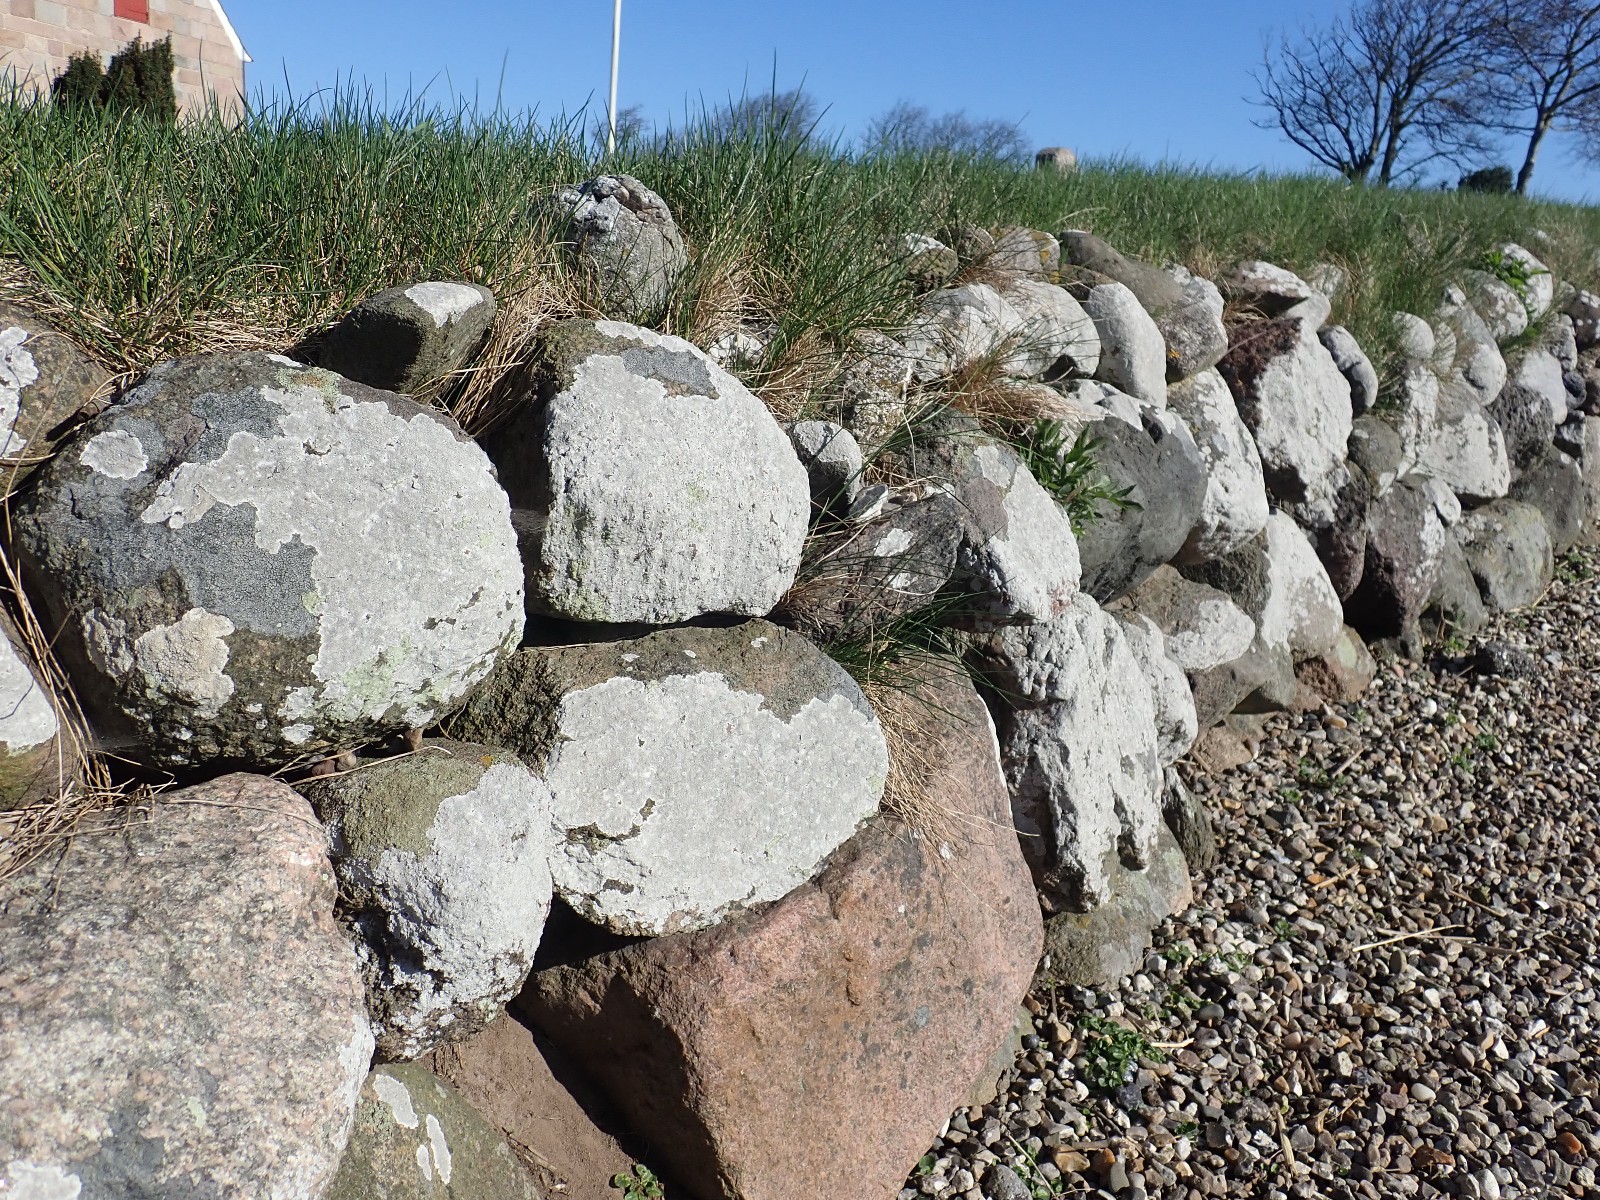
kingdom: Fungi
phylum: Ascomycota
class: Lecanoromycetes
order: Lecanorales
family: Lecanoraceae
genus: Glaucomaria
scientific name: Glaucomaria rupicola
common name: stengærde-kantskivelav
